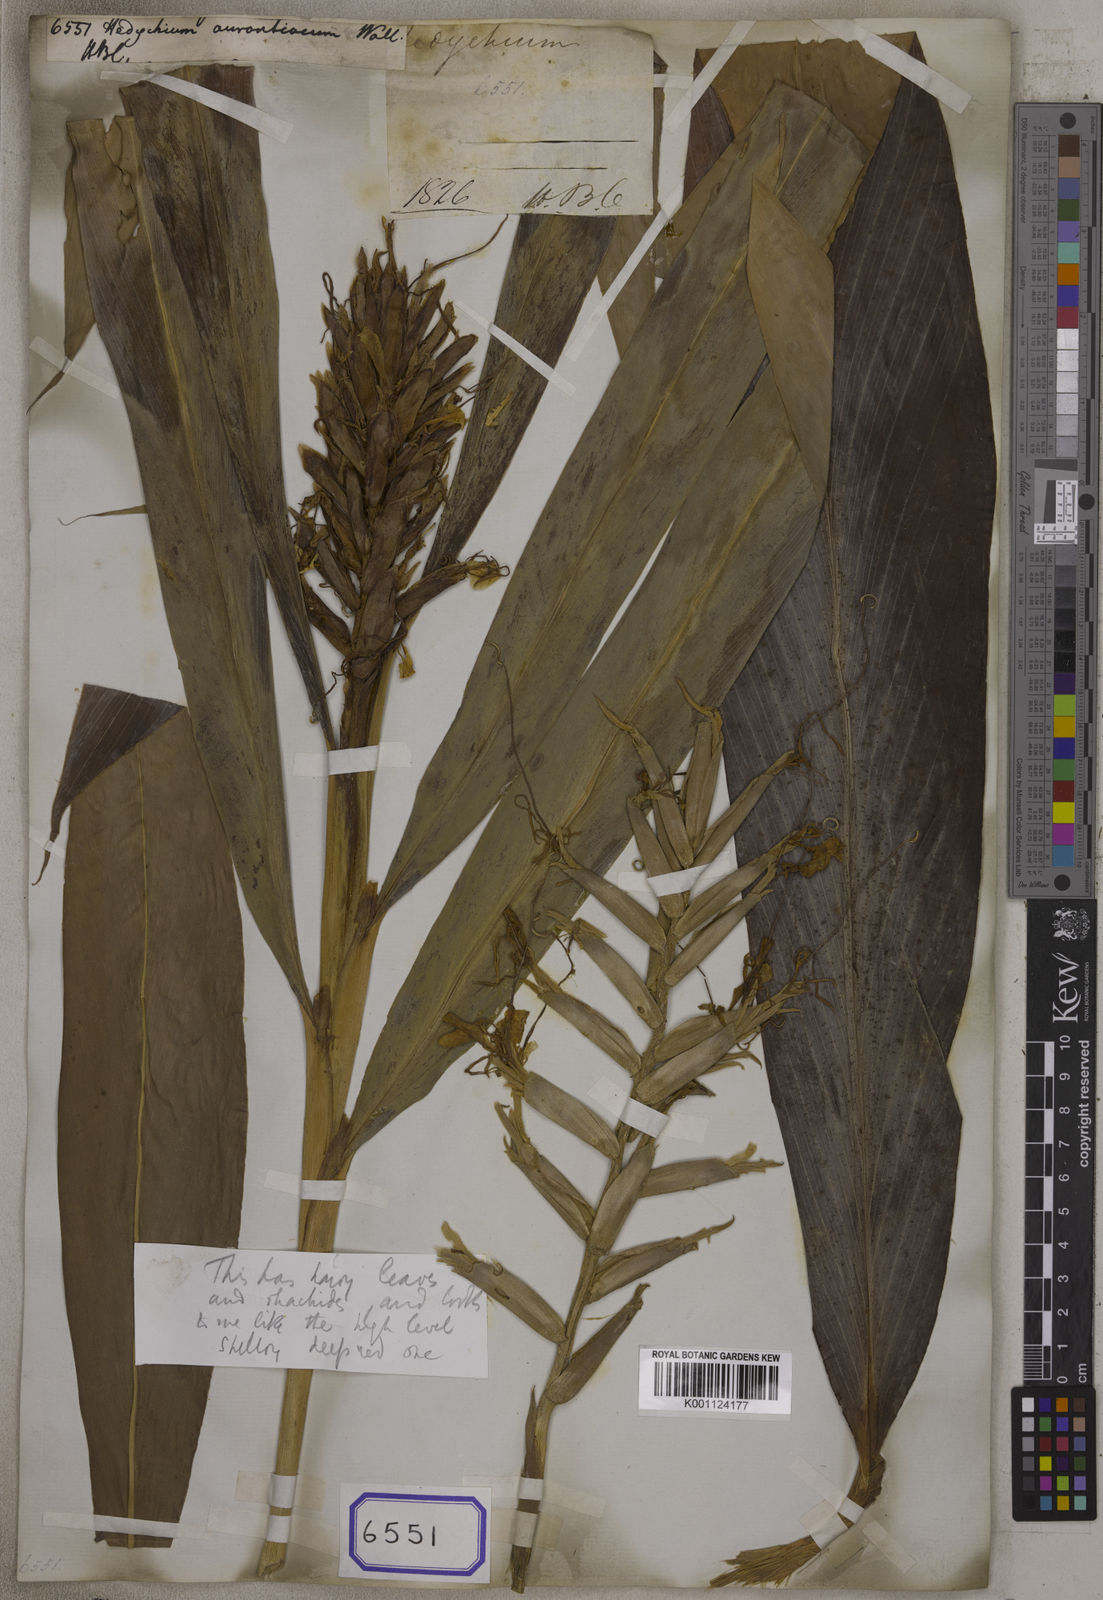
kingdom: Plantae
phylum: Tracheophyta
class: Liliopsida
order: Zingiberales
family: Zingiberaceae
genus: Hedychium
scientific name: Hedychium
